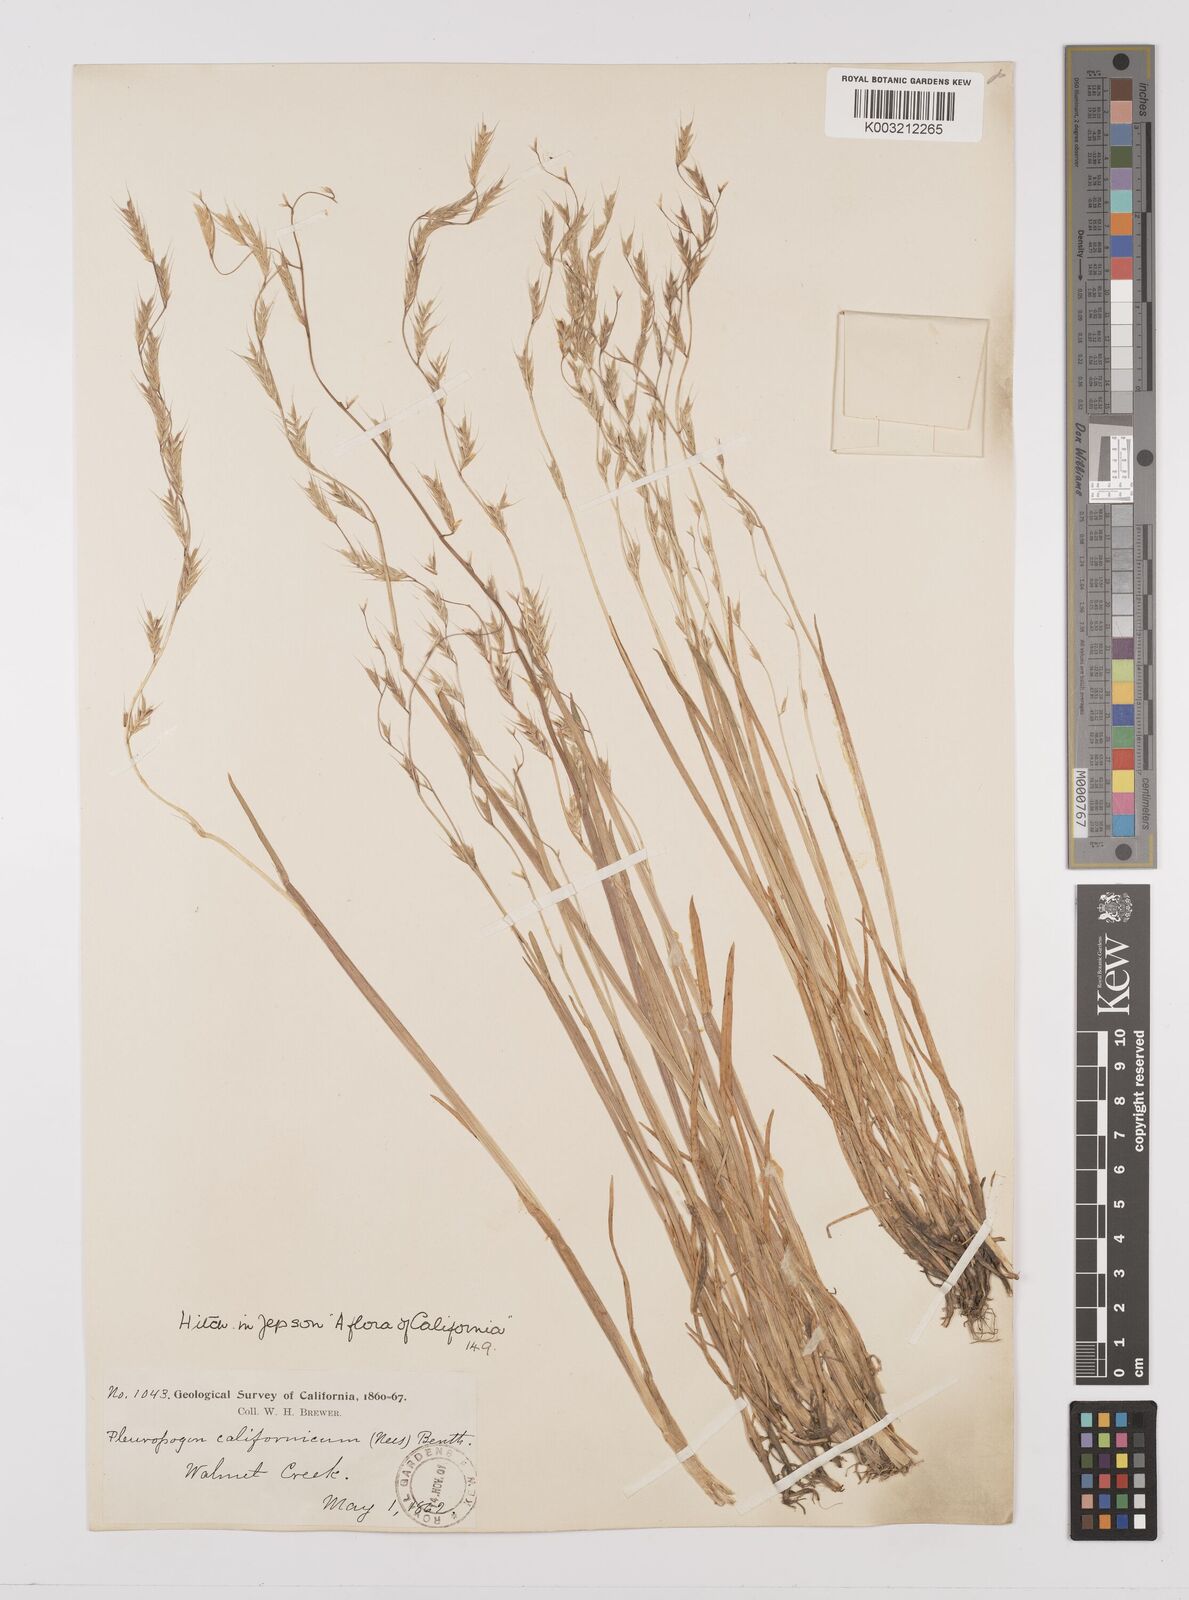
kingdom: Plantae
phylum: Tracheophyta
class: Liliopsida
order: Poales
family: Poaceae
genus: Pleuropogon
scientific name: Pleuropogon californicus
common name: California semaphore grass
